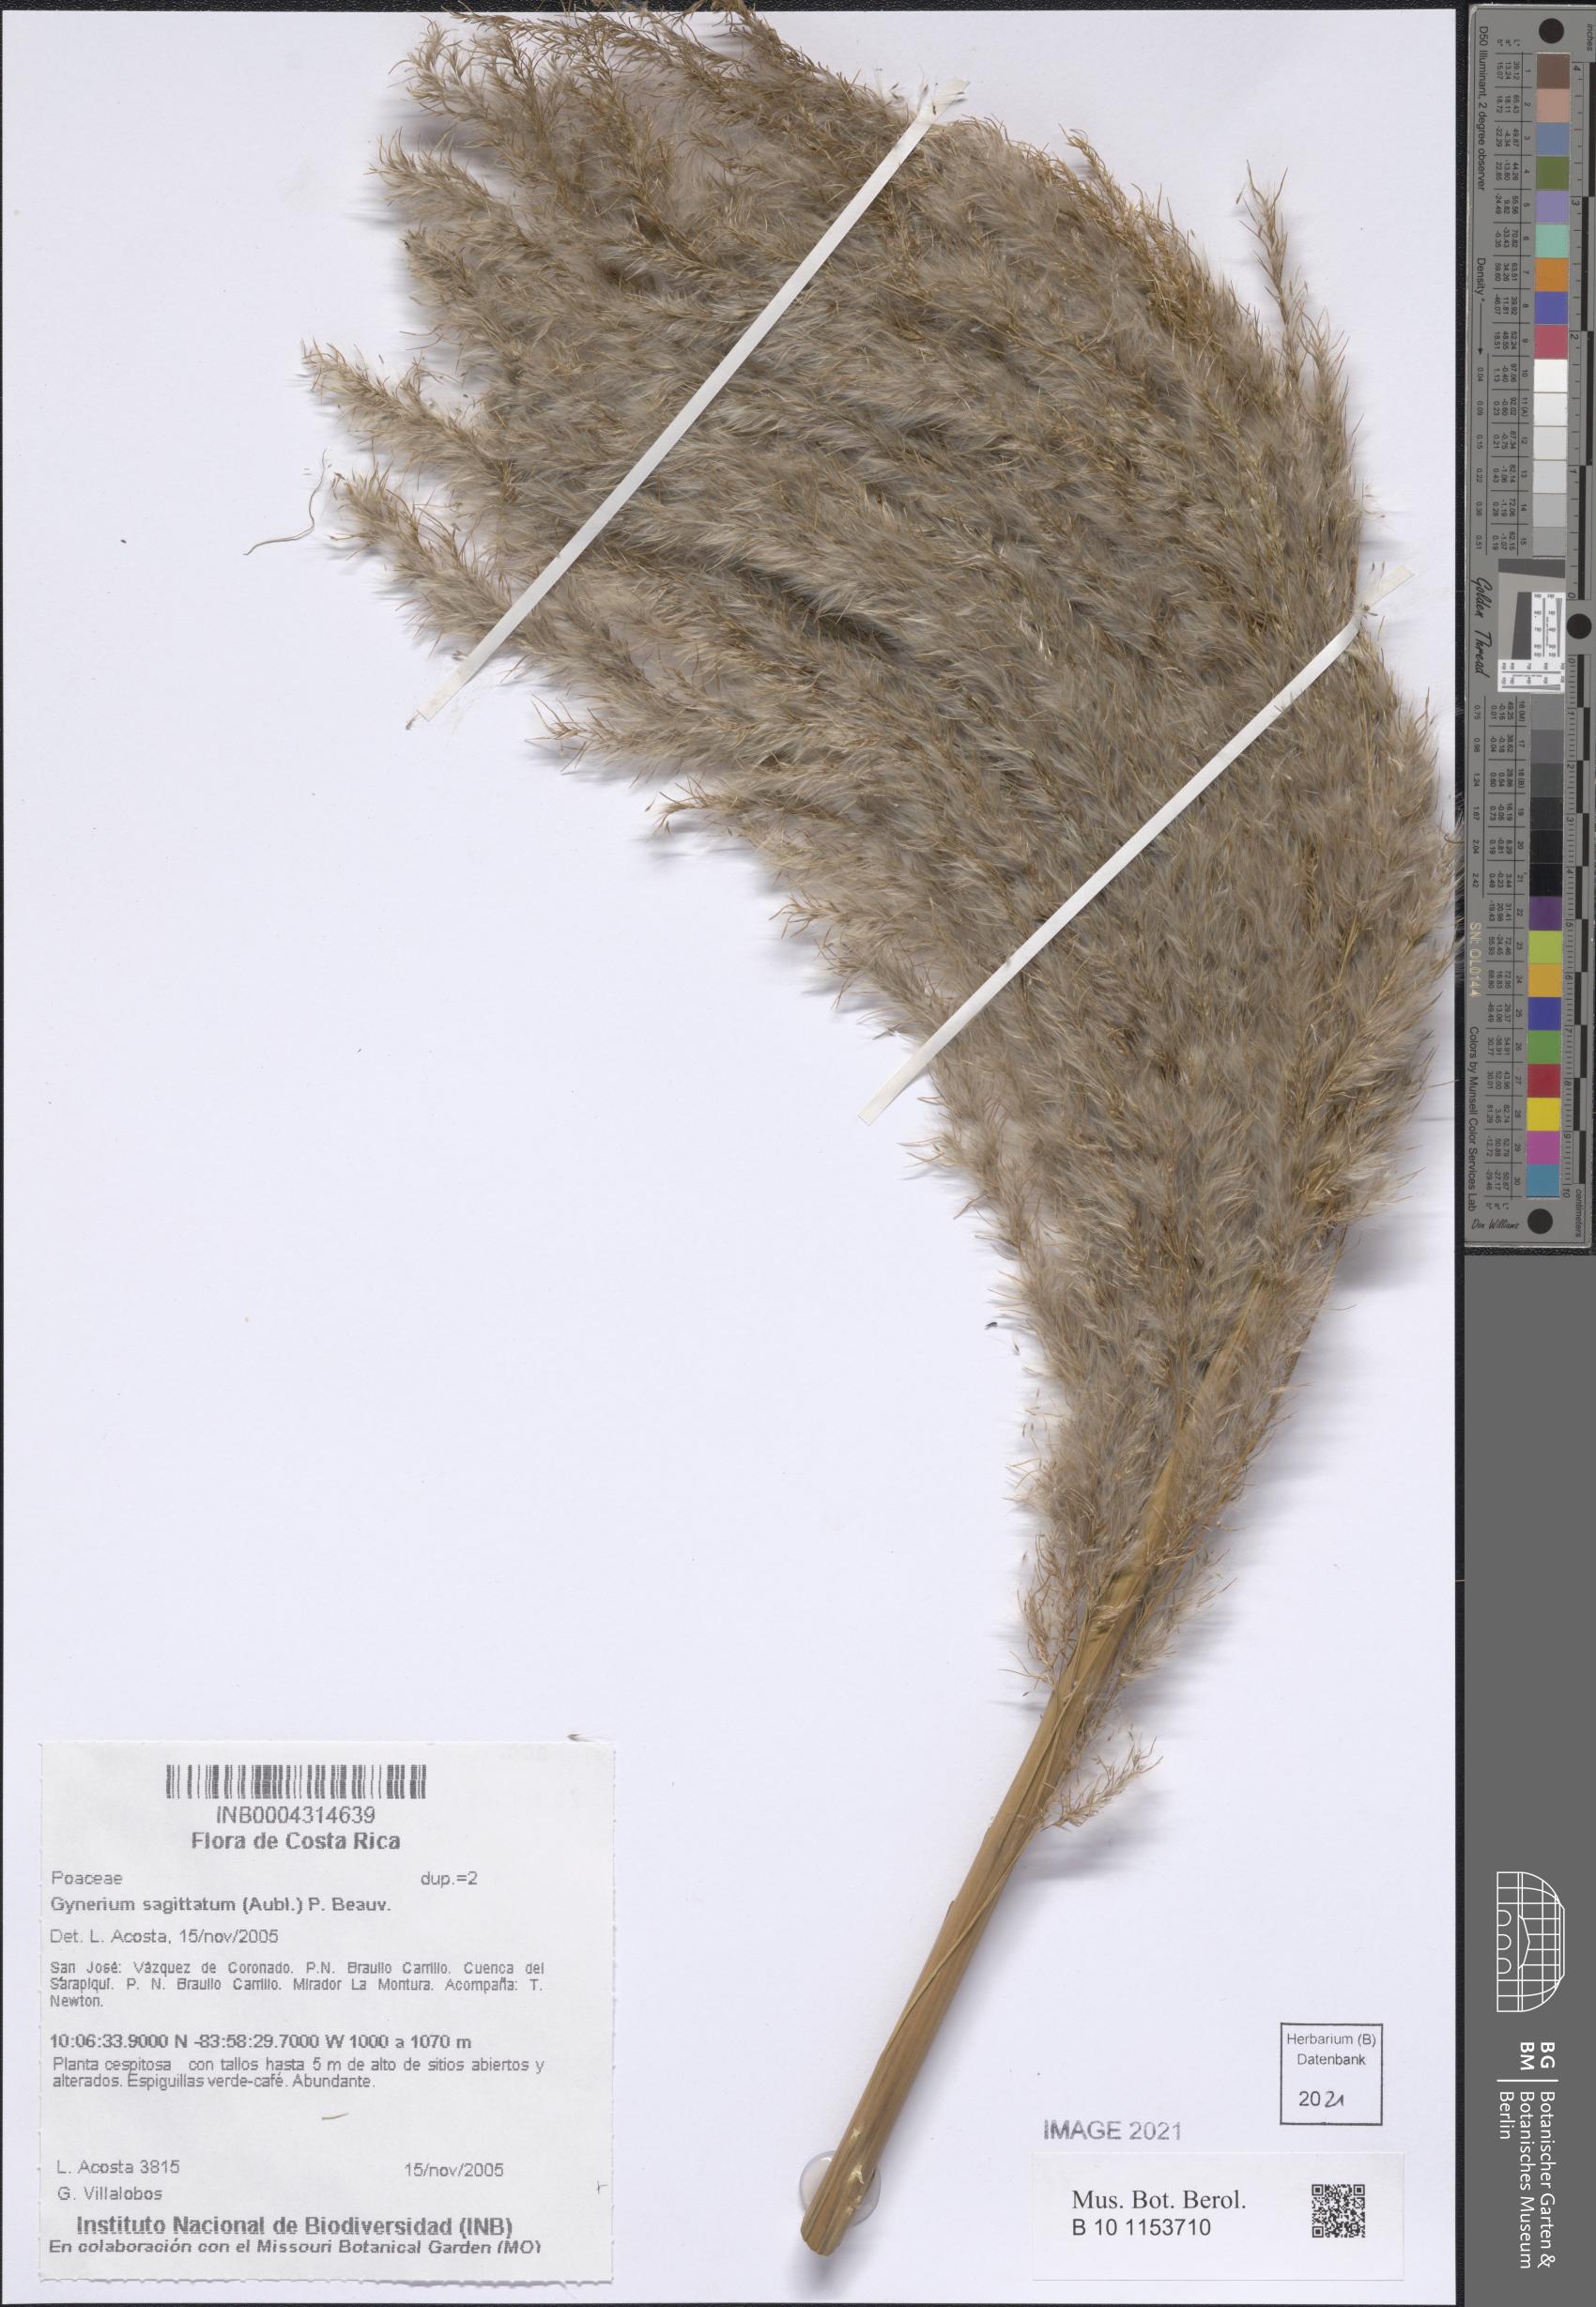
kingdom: Plantae
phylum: Tracheophyta
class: Liliopsida
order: Poales
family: Poaceae
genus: Gynerium
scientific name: Gynerium sagittatum
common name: Wild cane
